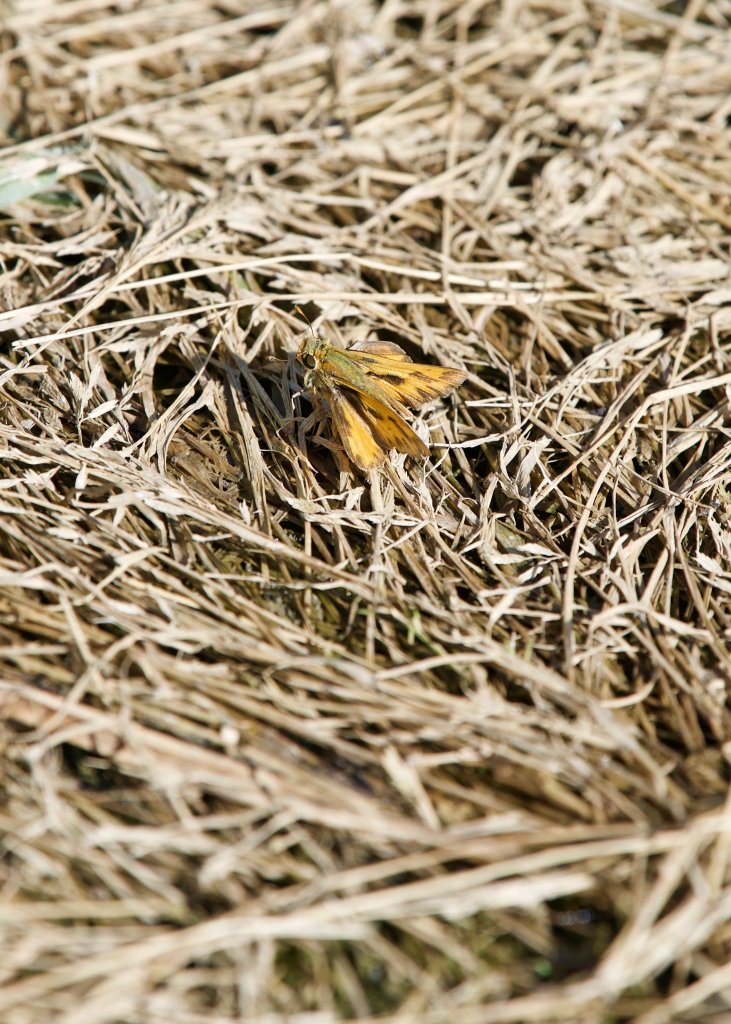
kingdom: Animalia
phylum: Arthropoda
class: Insecta
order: Lepidoptera
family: Hesperiidae
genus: Hylephila
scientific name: Hylephila phyleus
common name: Fiery Skipper
